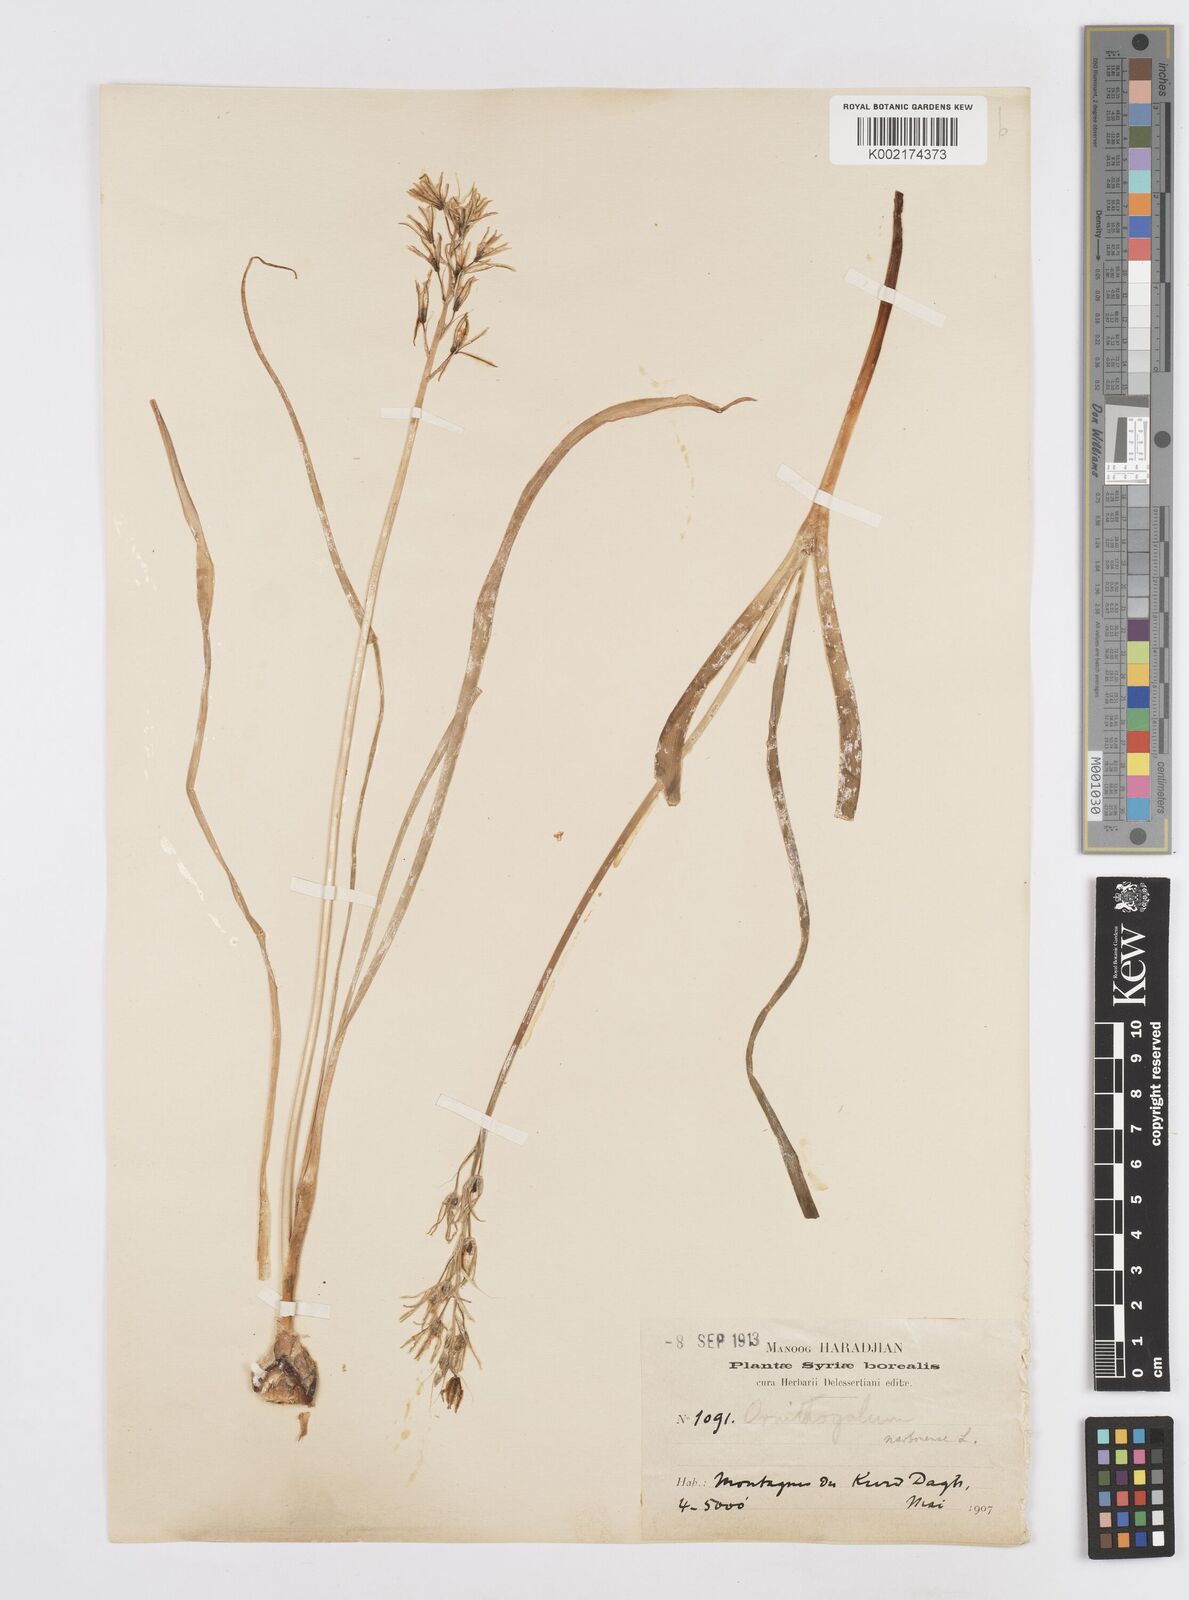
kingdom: Plantae
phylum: Tracheophyta
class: Liliopsida
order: Asparagales
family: Asparagaceae
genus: Ornithogalum
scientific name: Ornithogalum narbonense
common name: Bath-asparagus
